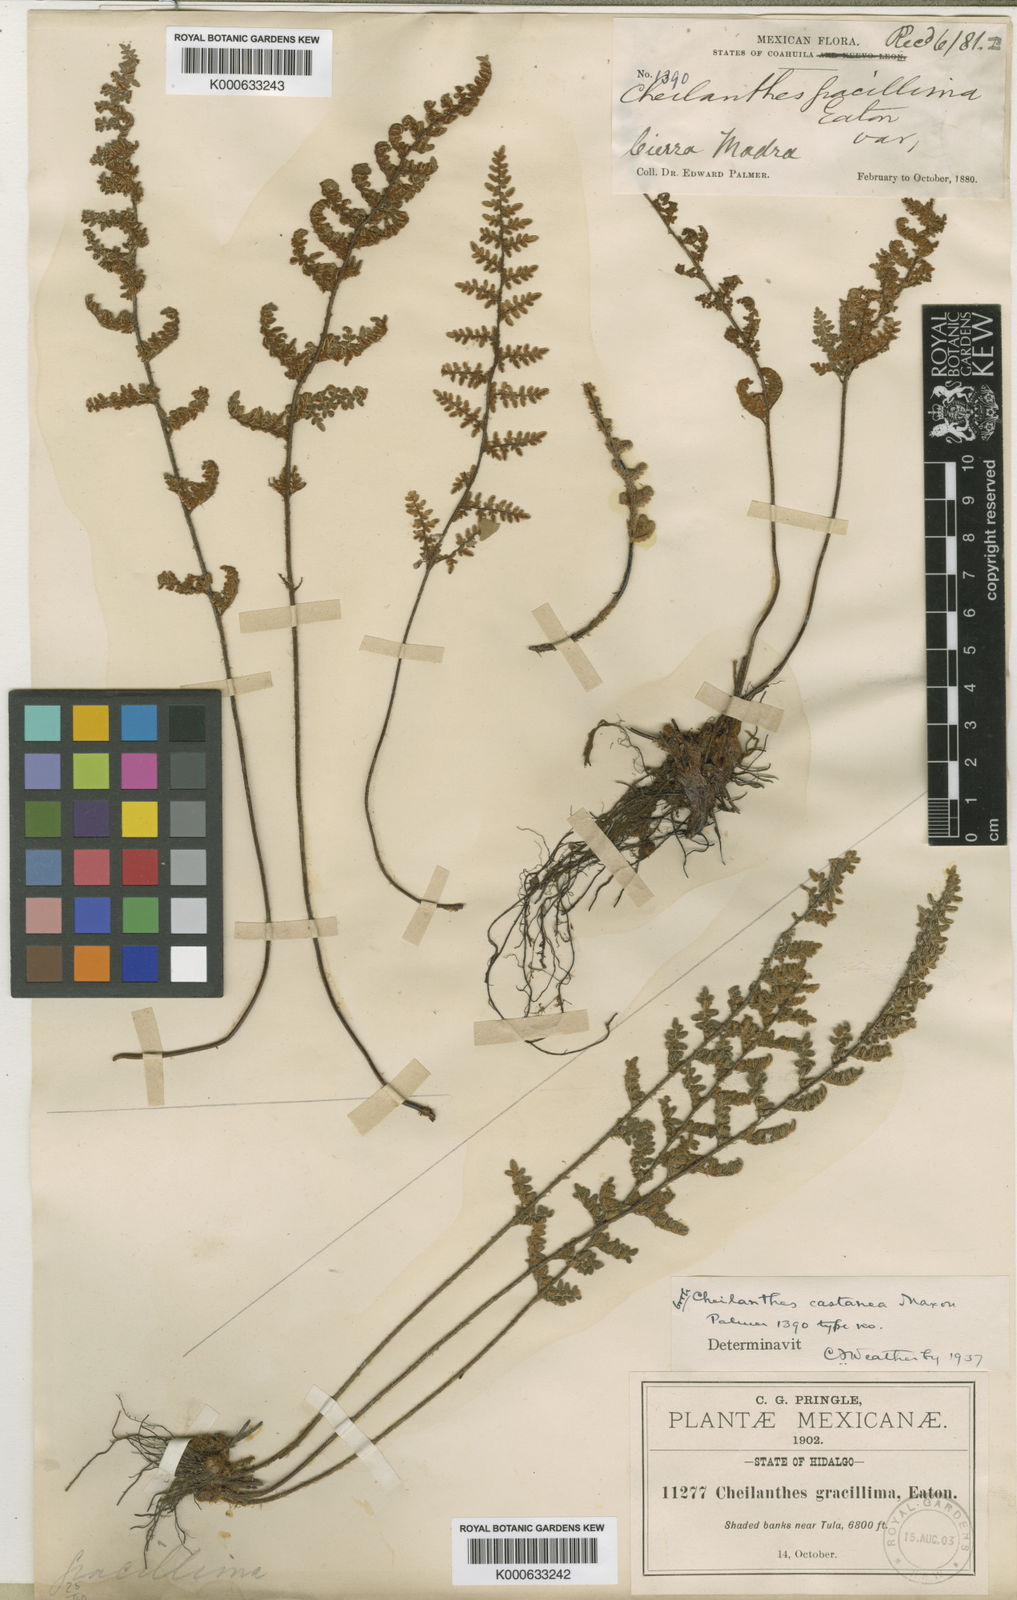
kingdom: Plantae
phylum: Tracheophyta
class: Polypodiopsida
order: Polypodiales
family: Pteridaceae
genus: Myriopteris
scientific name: Myriopteris rufa
